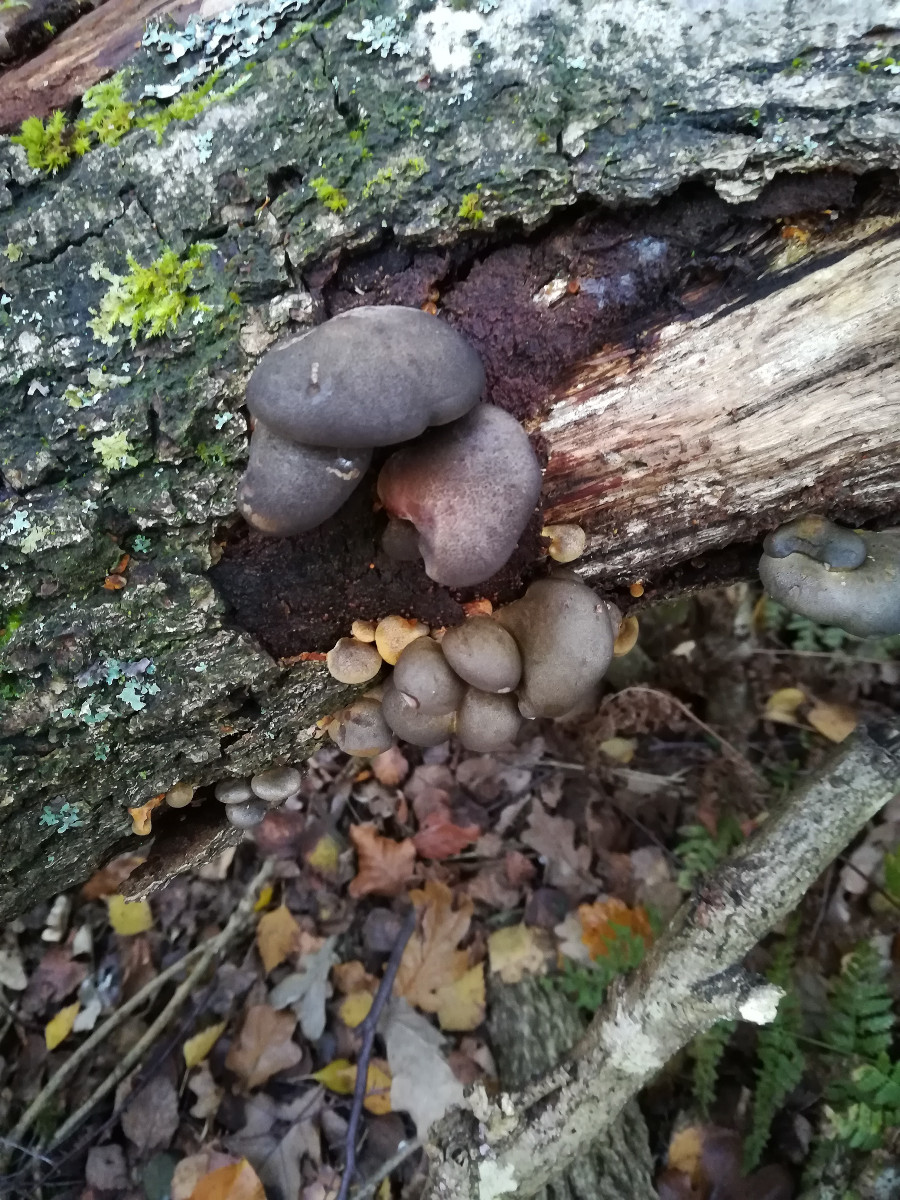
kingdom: Fungi
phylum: Basidiomycota
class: Agaricomycetes
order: Agaricales
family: Sarcomyxaceae
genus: Sarcomyxa
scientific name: Sarcomyxa serotina
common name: gummihat
